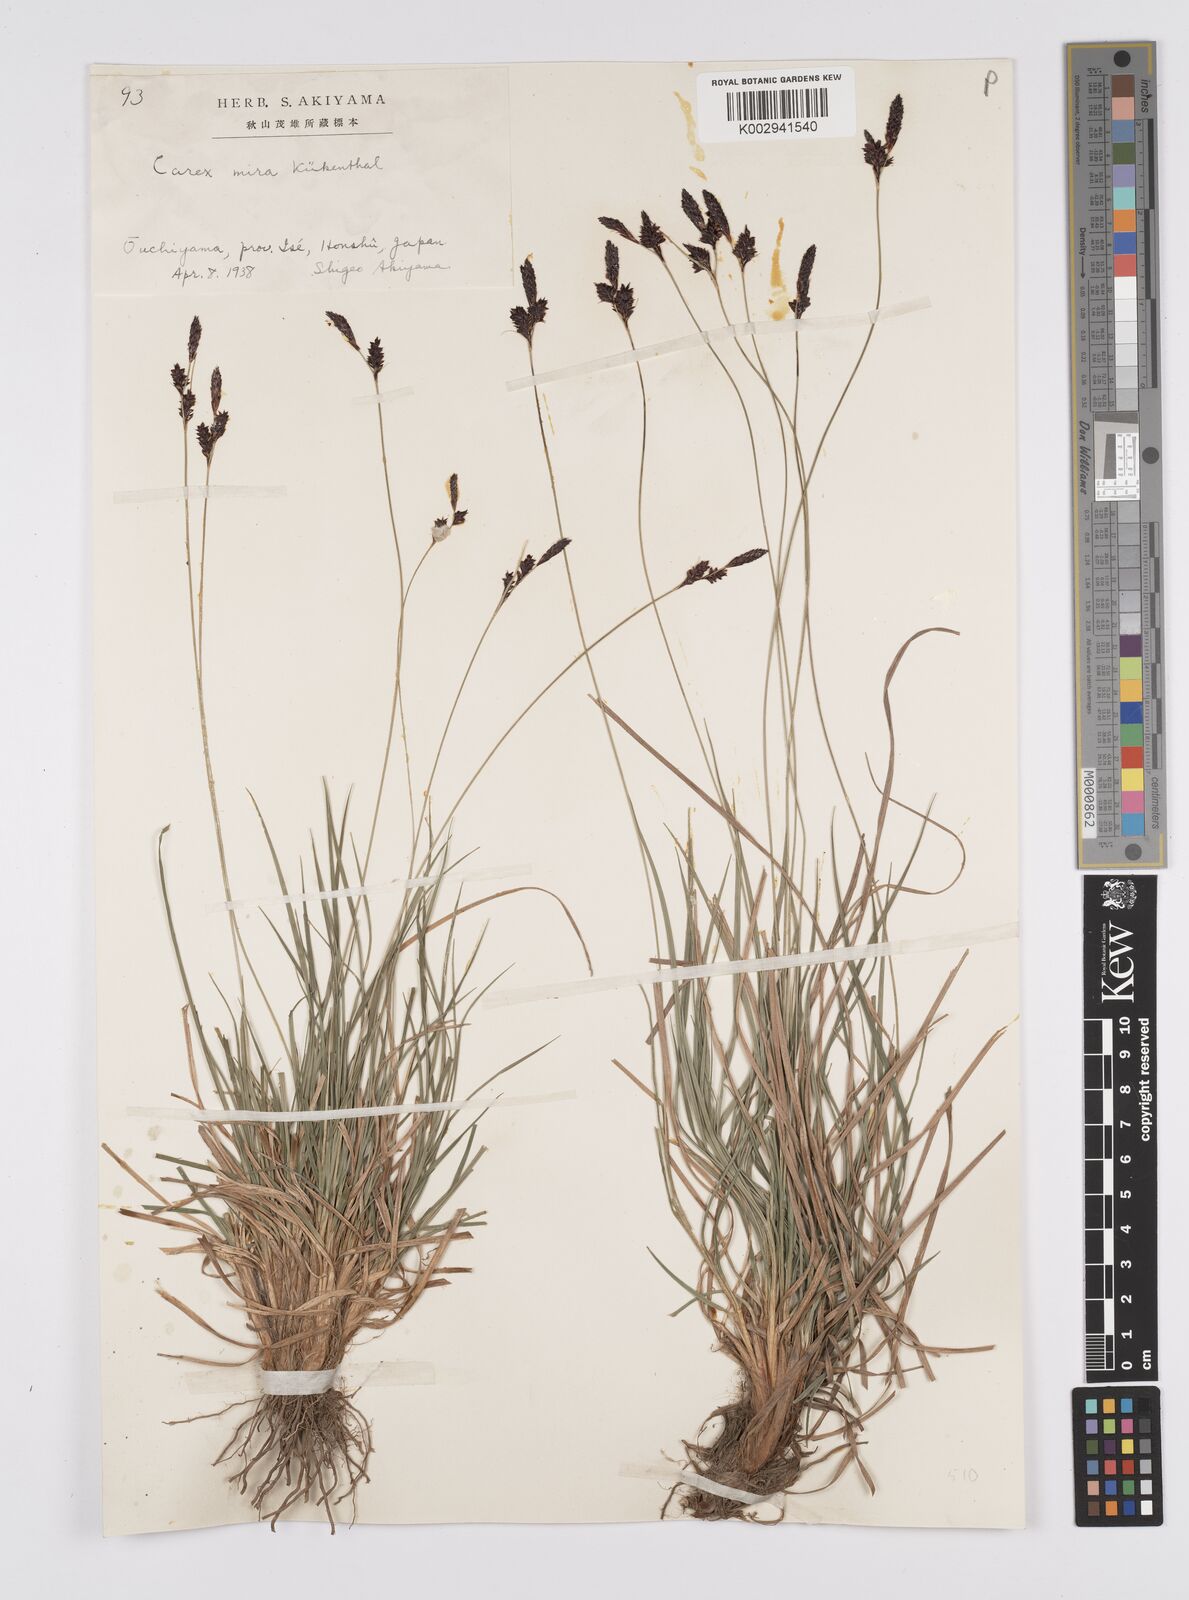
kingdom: Plantae
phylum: Tracheophyta
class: Liliopsida
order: Poales
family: Cyperaceae
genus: Carex
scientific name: Carex mira
